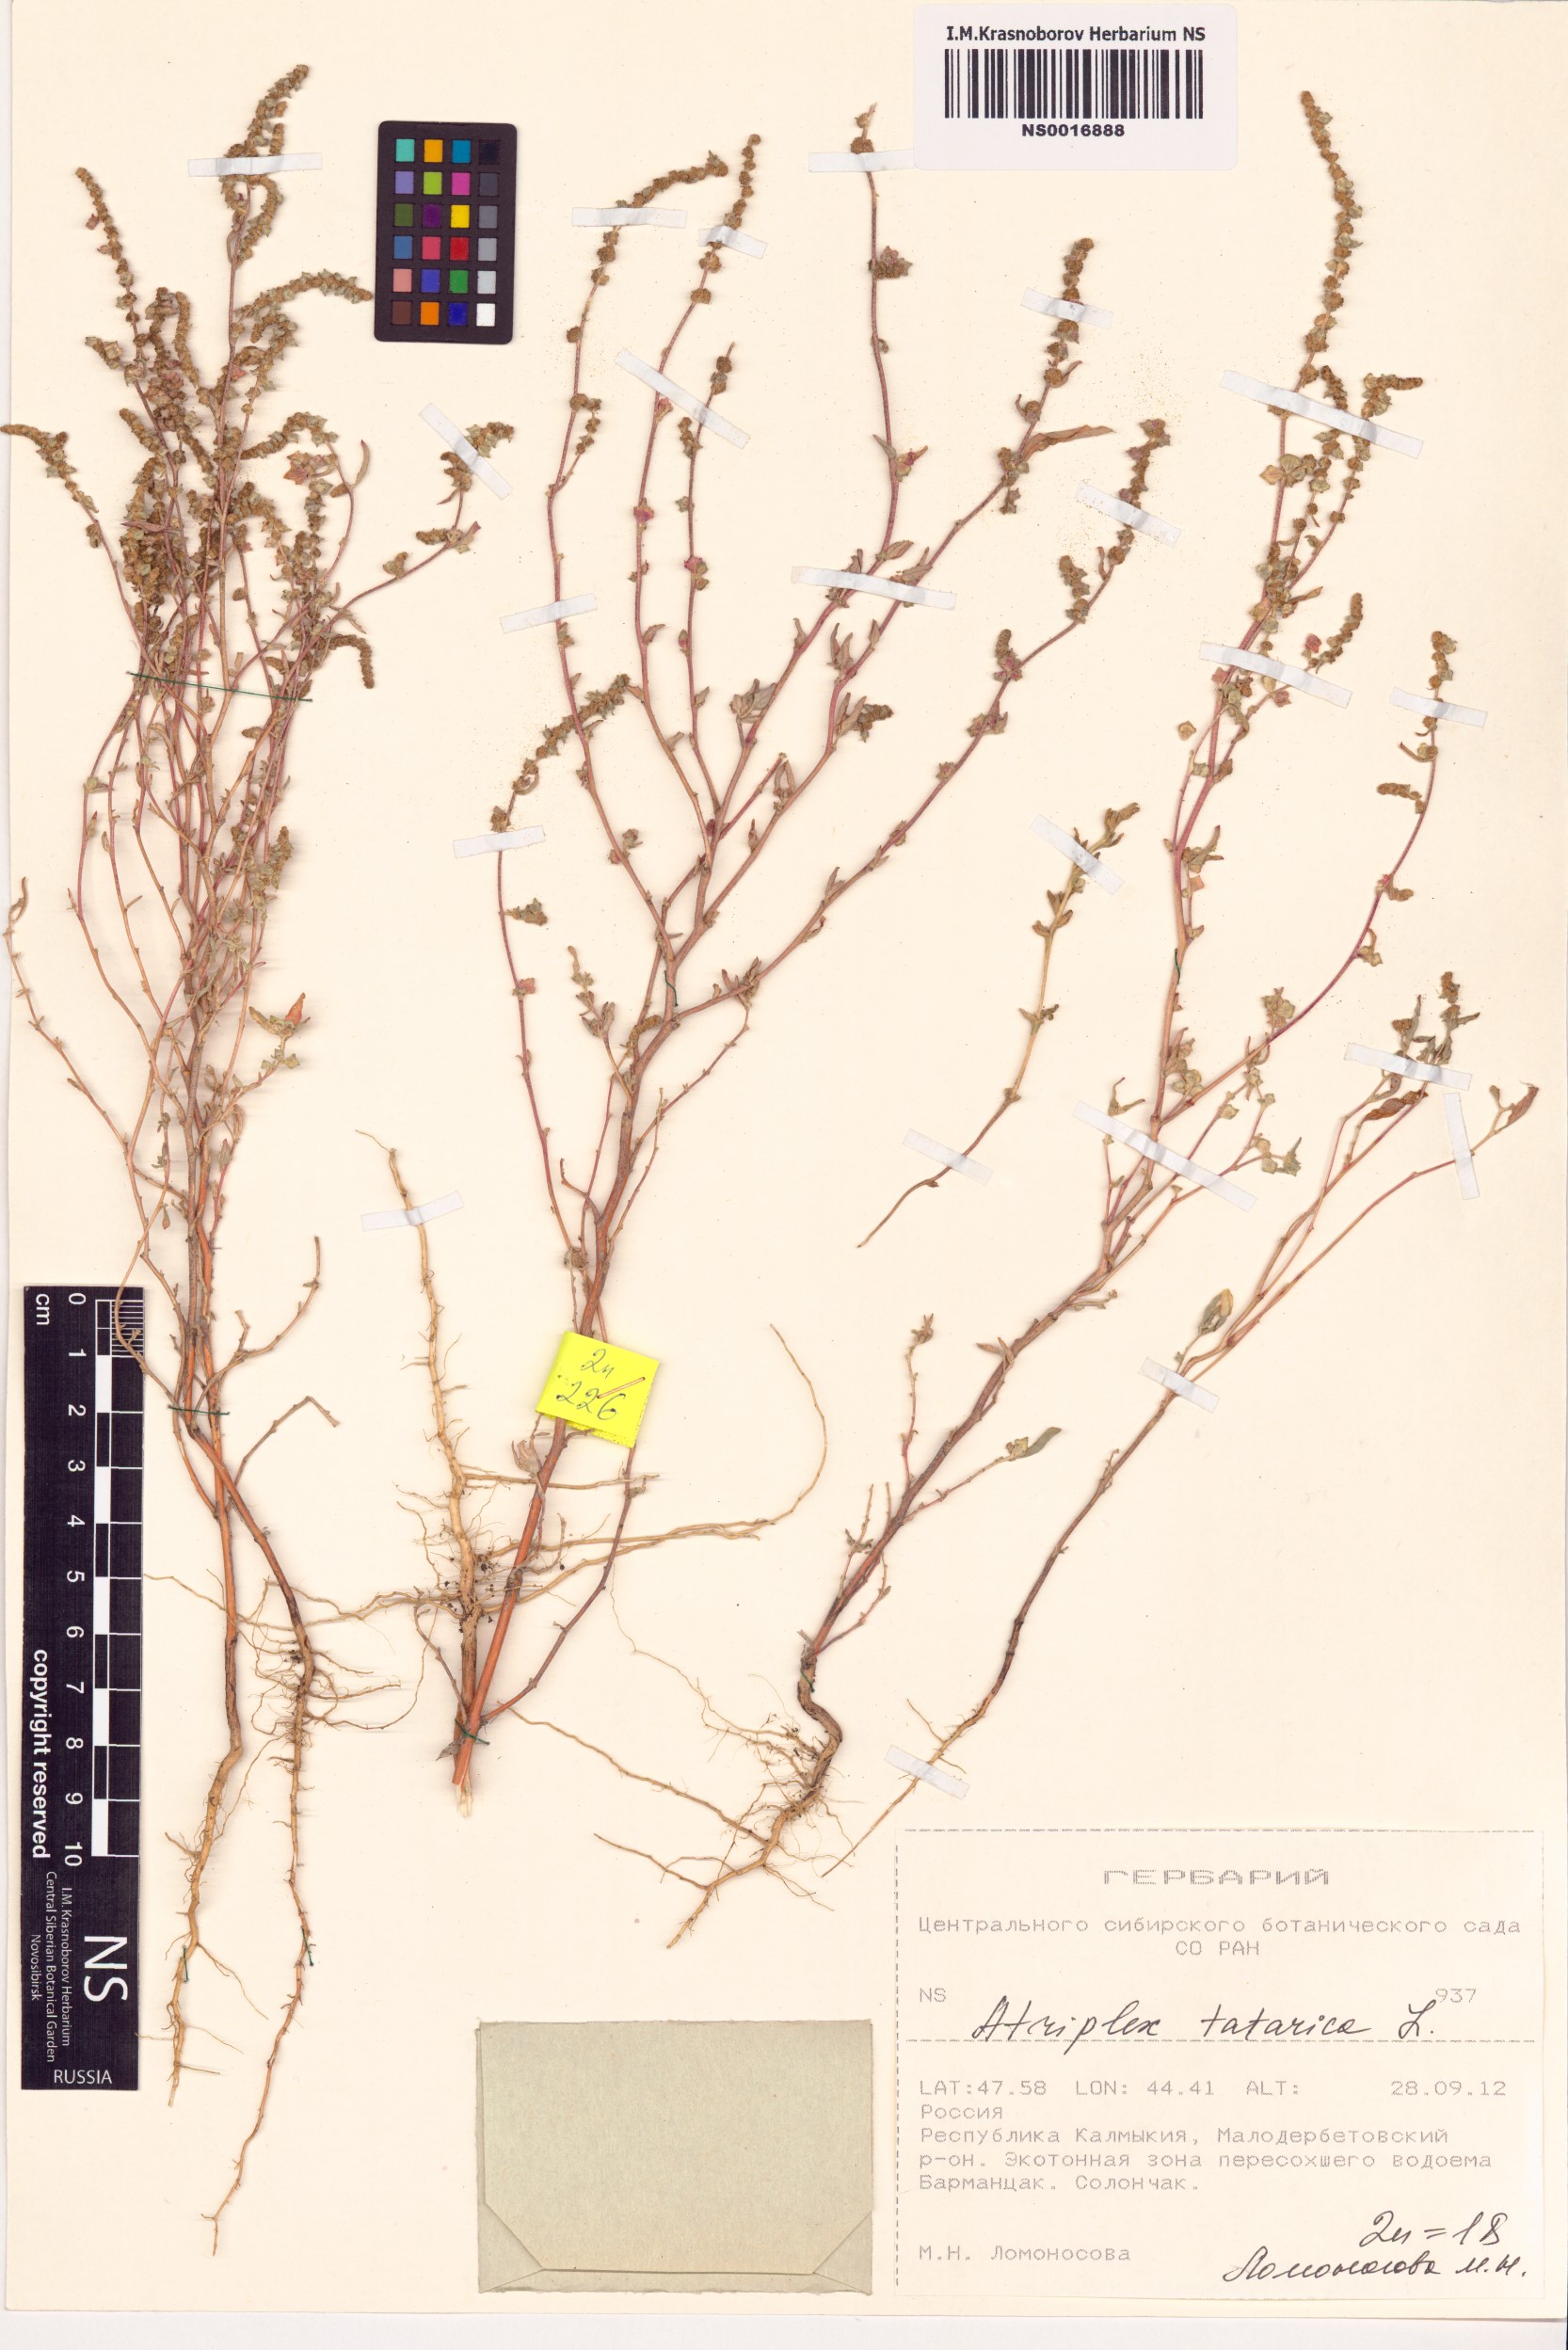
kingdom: Plantae
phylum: Tracheophyta
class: Magnoliopsida
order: Caryophyllales
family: Amaranthaceae
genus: Atriplex
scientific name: Atriplex tatarica
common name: Tatarian orache
